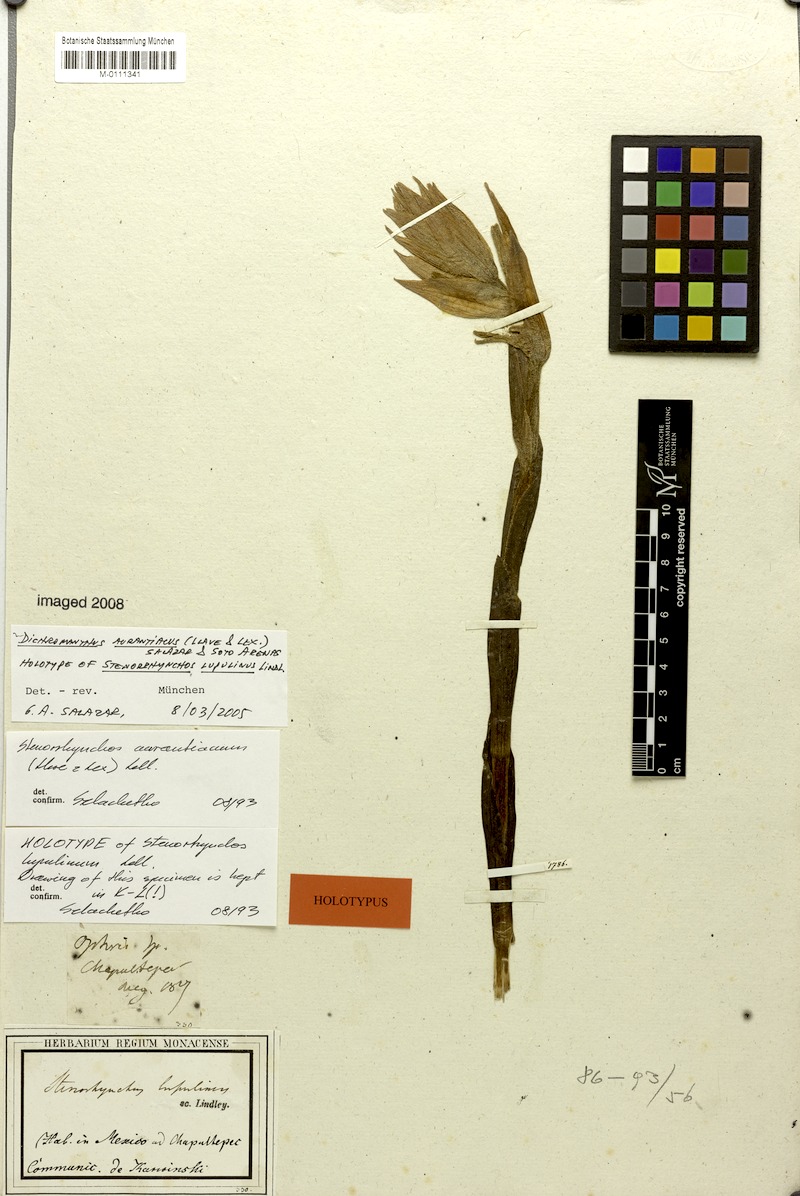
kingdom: Plantae
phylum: Tracheophyta
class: Liliopsida
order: Asparagales
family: Orchidaceae
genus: Dichromanthus
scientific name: Dichromanthus aurantiacus
